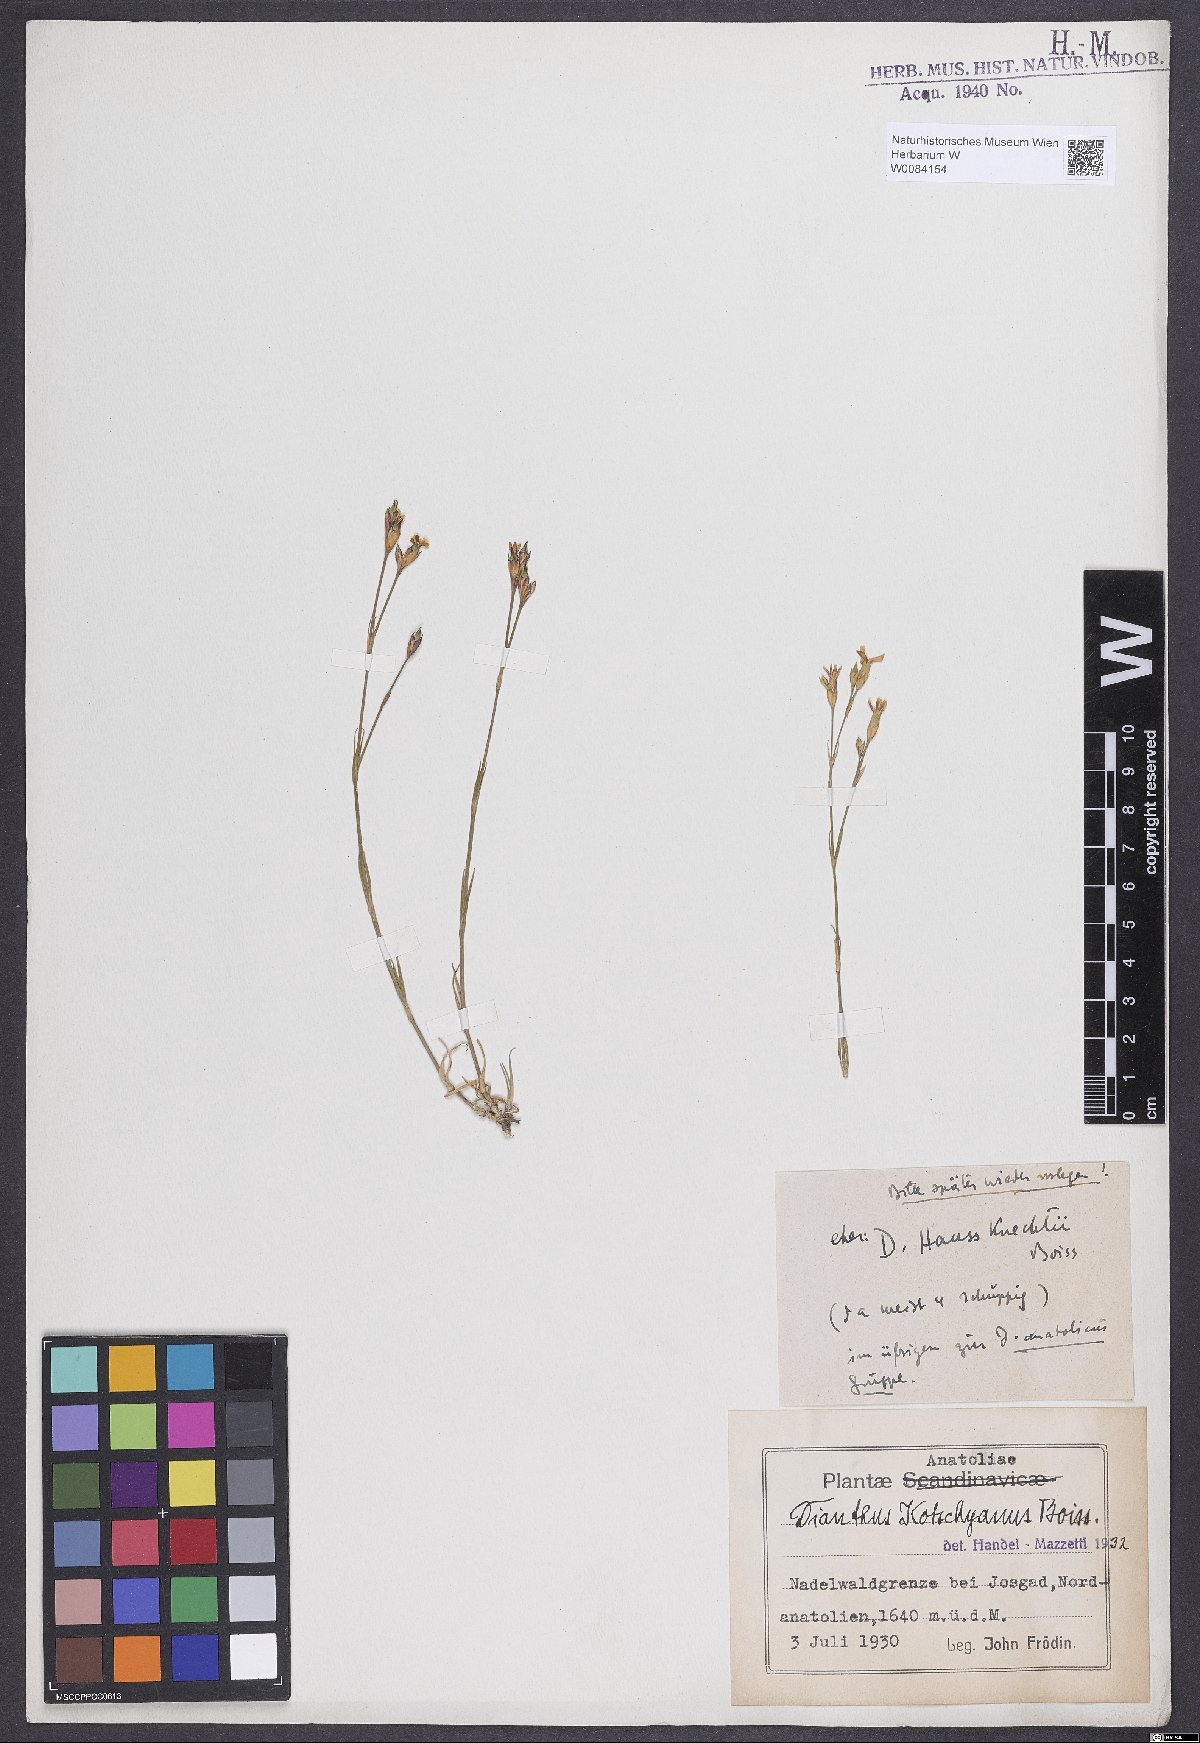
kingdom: Plantae
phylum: Tracheophyta
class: Magnoliopsida
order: Caryophyllales
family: Caryophyllaceae
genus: Dianthus
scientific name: Dianthus anatolicus
